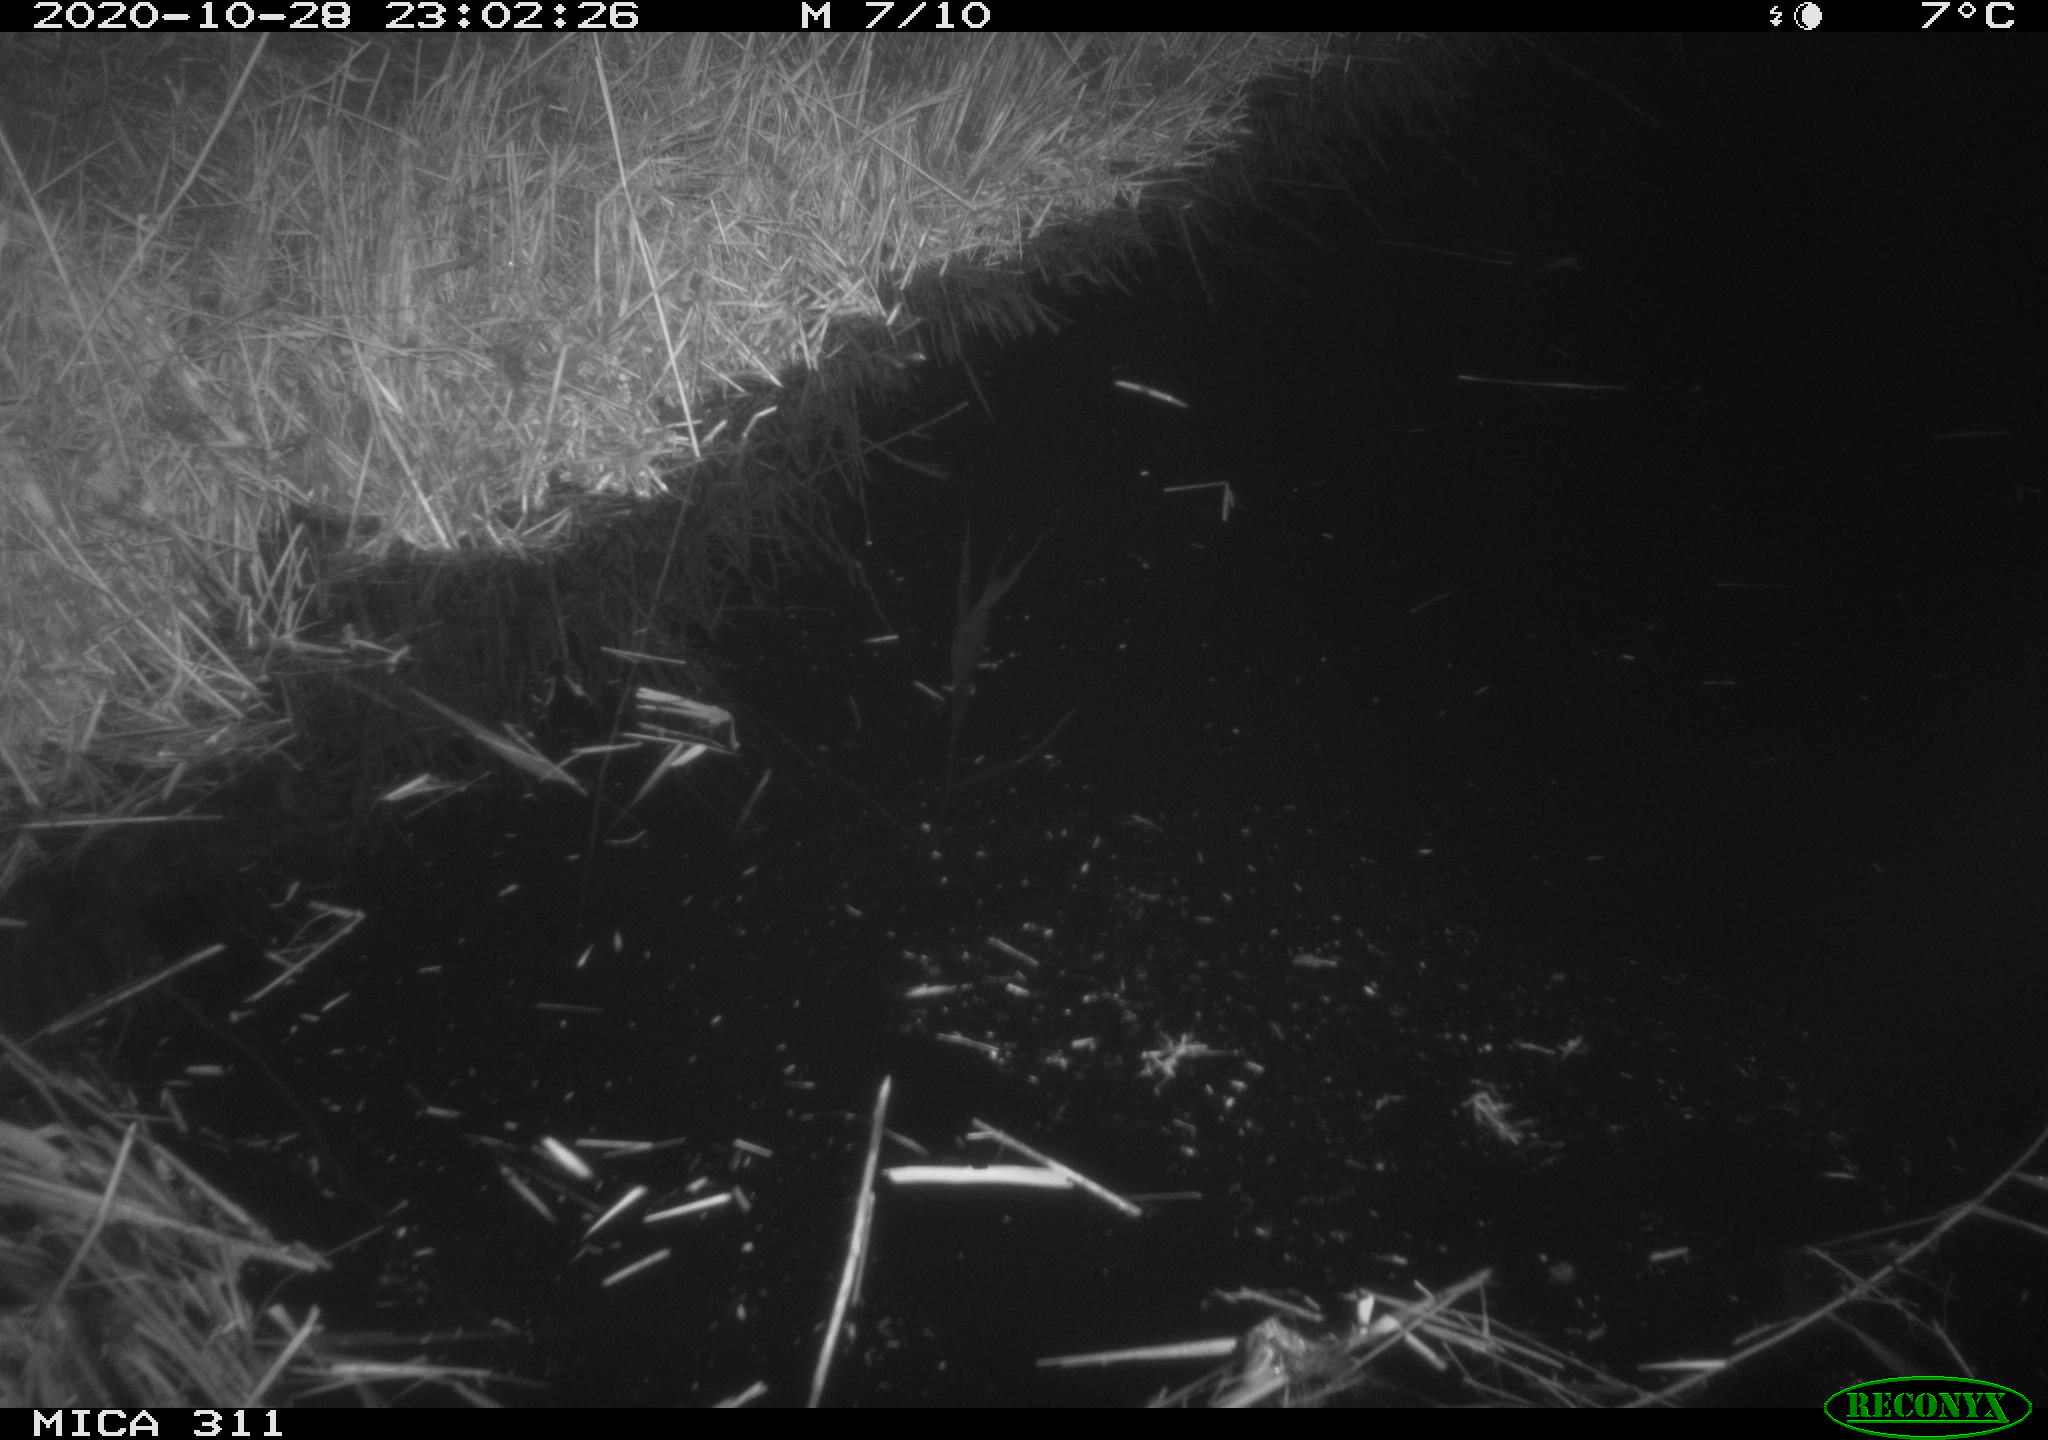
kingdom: Animalia
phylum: Chordata
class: Mammalia
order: Rodentia
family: Muridae
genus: Rattus
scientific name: Rattus norvegicus
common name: Brown rat
